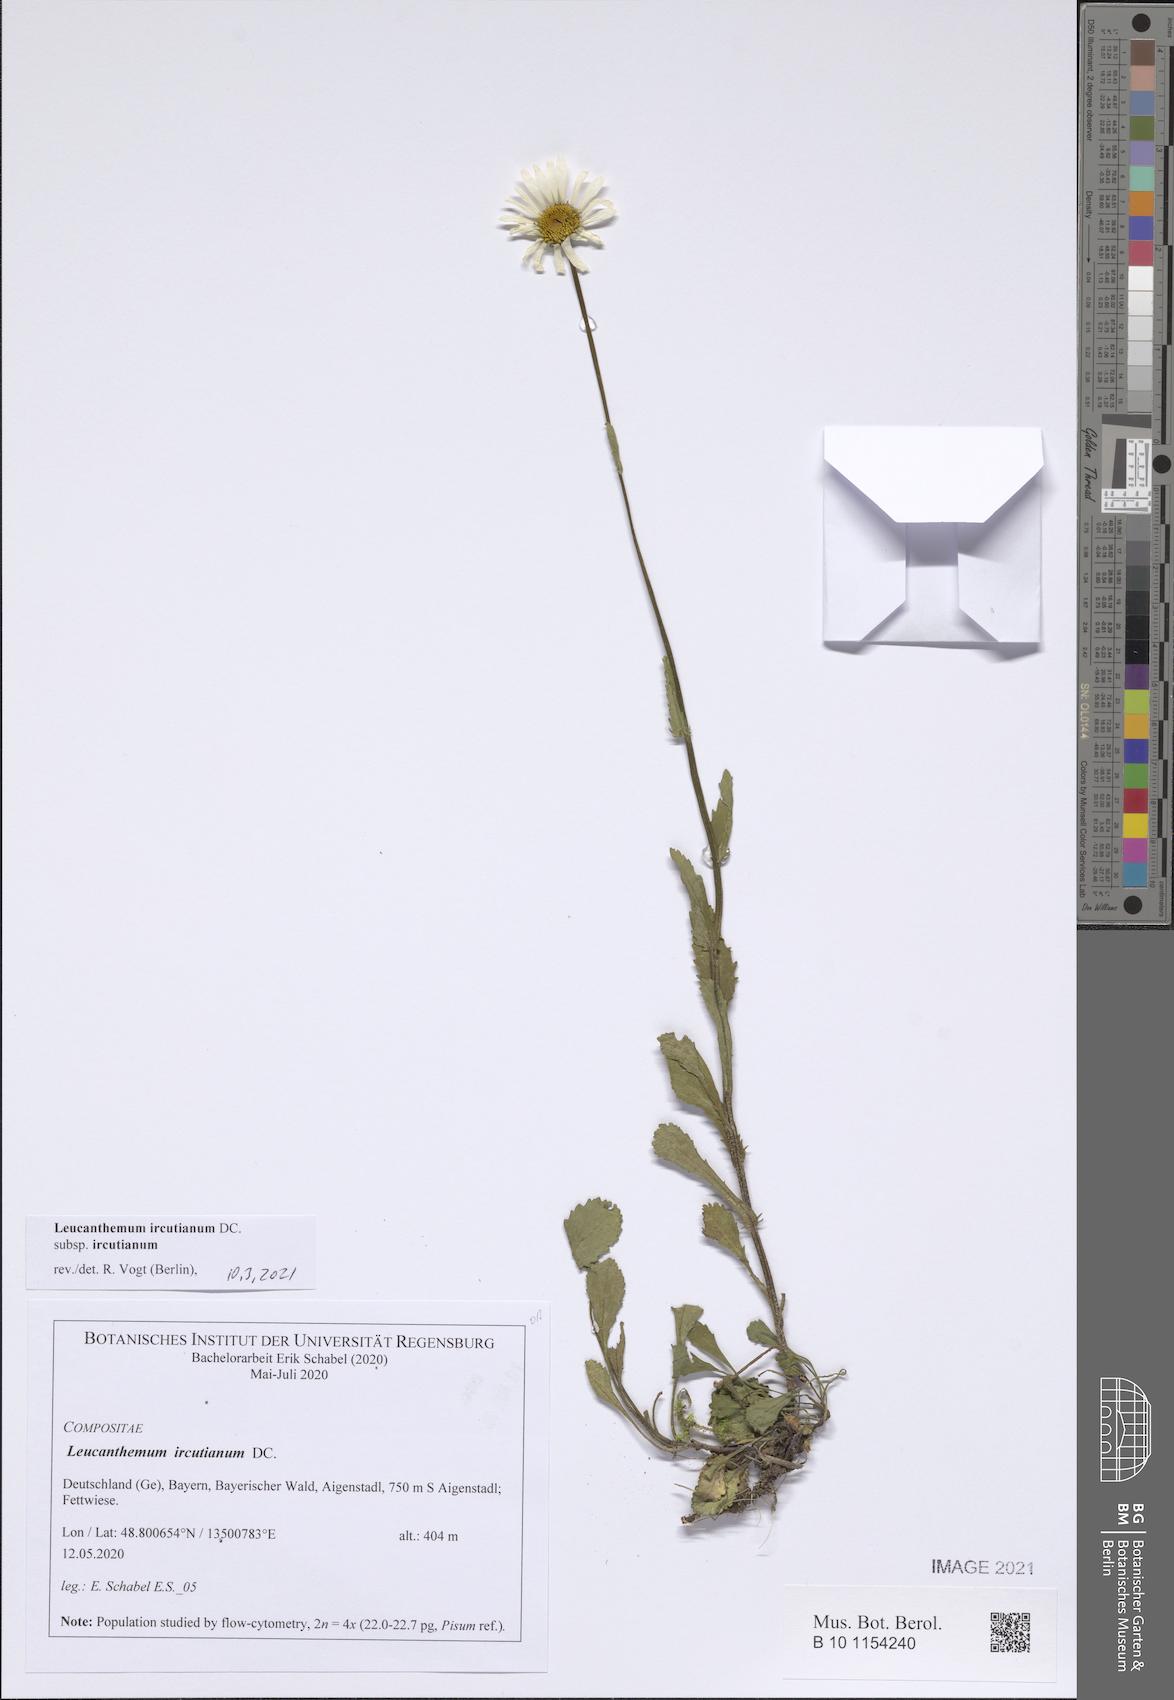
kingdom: Plantae
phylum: Tracheophyta
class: Magnoliopsida
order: Asterales
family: Asteraceae
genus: Leucanthemum
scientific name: Leucanthemum ircutianum
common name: Daisy
